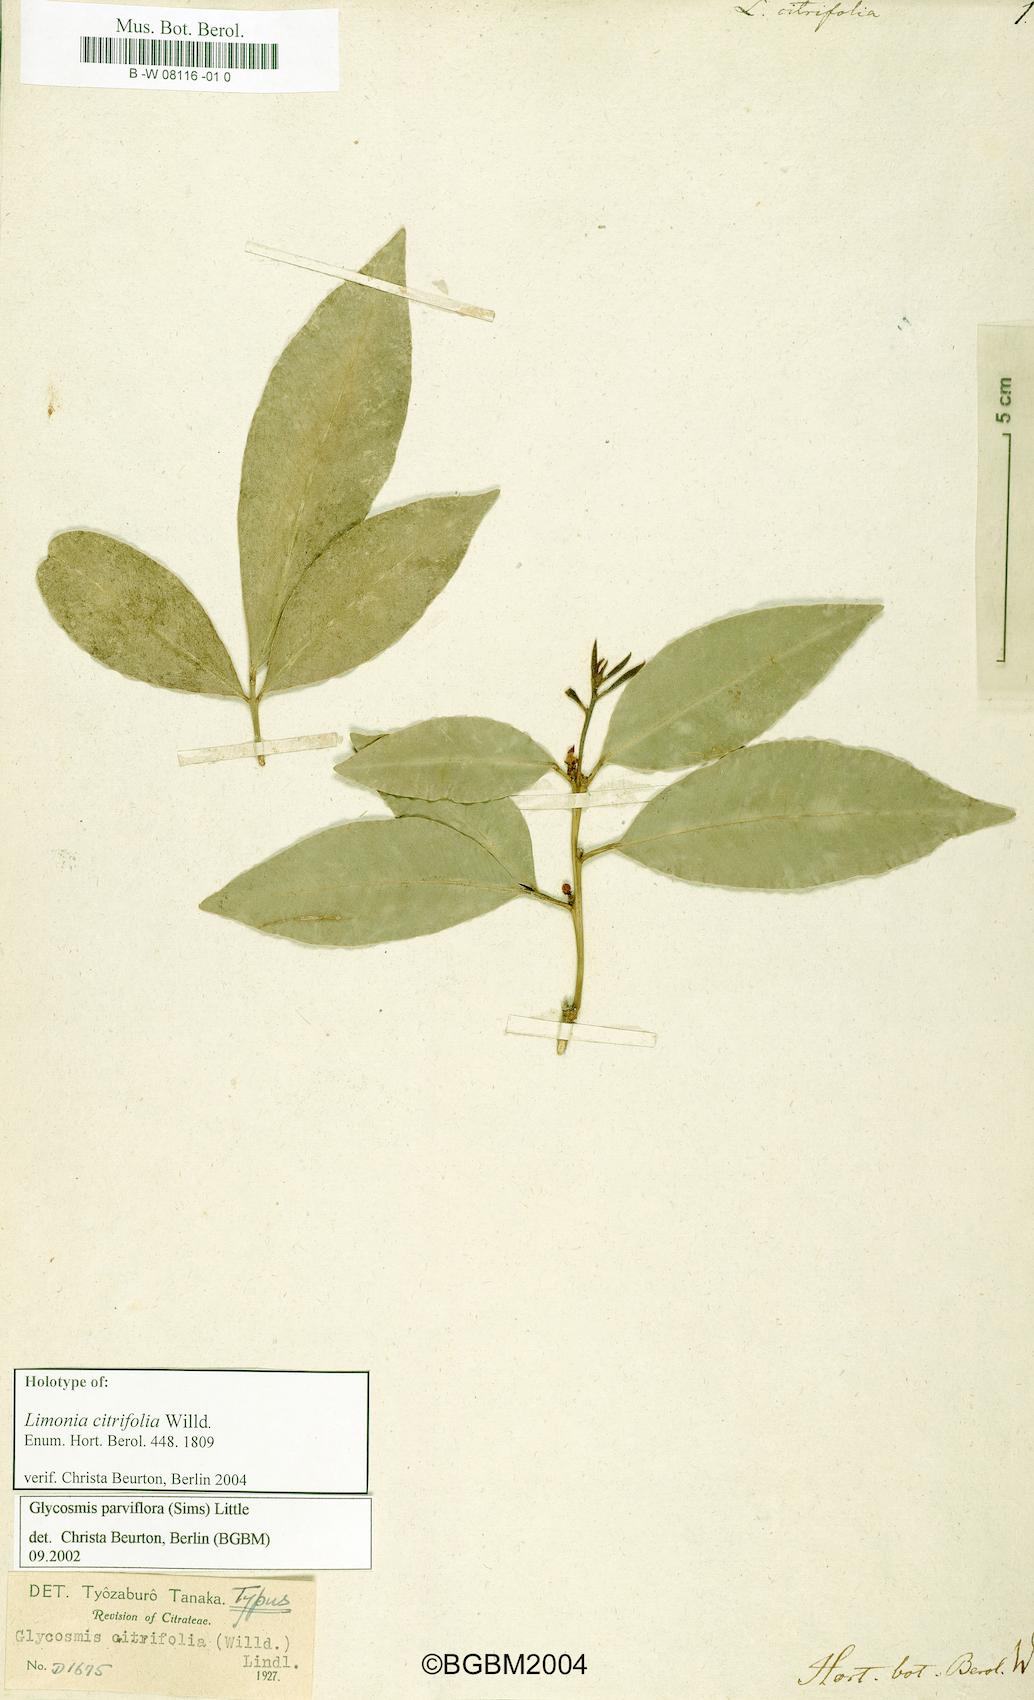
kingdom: Plantae
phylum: Tracheophyta
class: Magnoliopsida
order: Sapindales
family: Rutaceae
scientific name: Rutaceae
